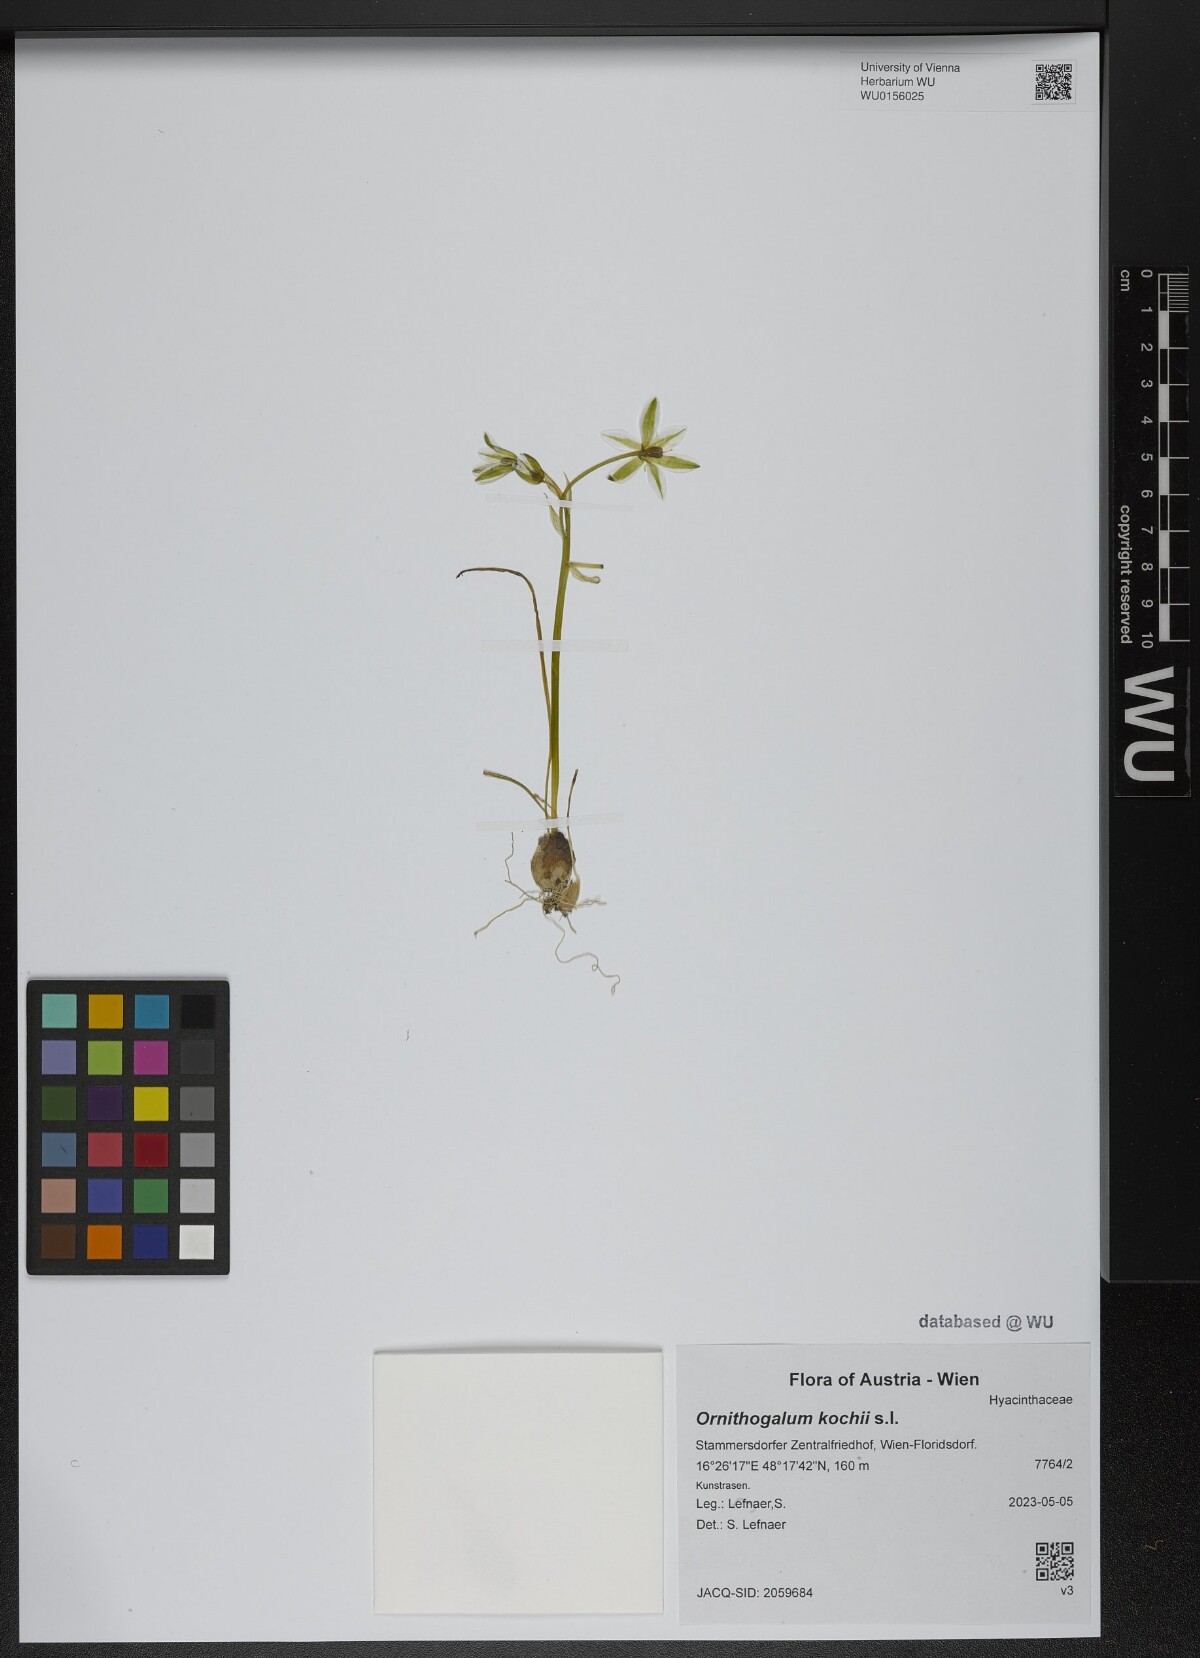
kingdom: Plantae
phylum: Tracheophyta
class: Liliopsida
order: Asparagales
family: Asparagaceae
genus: Ornithogalum
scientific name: Ornithogalum orthophyllum
